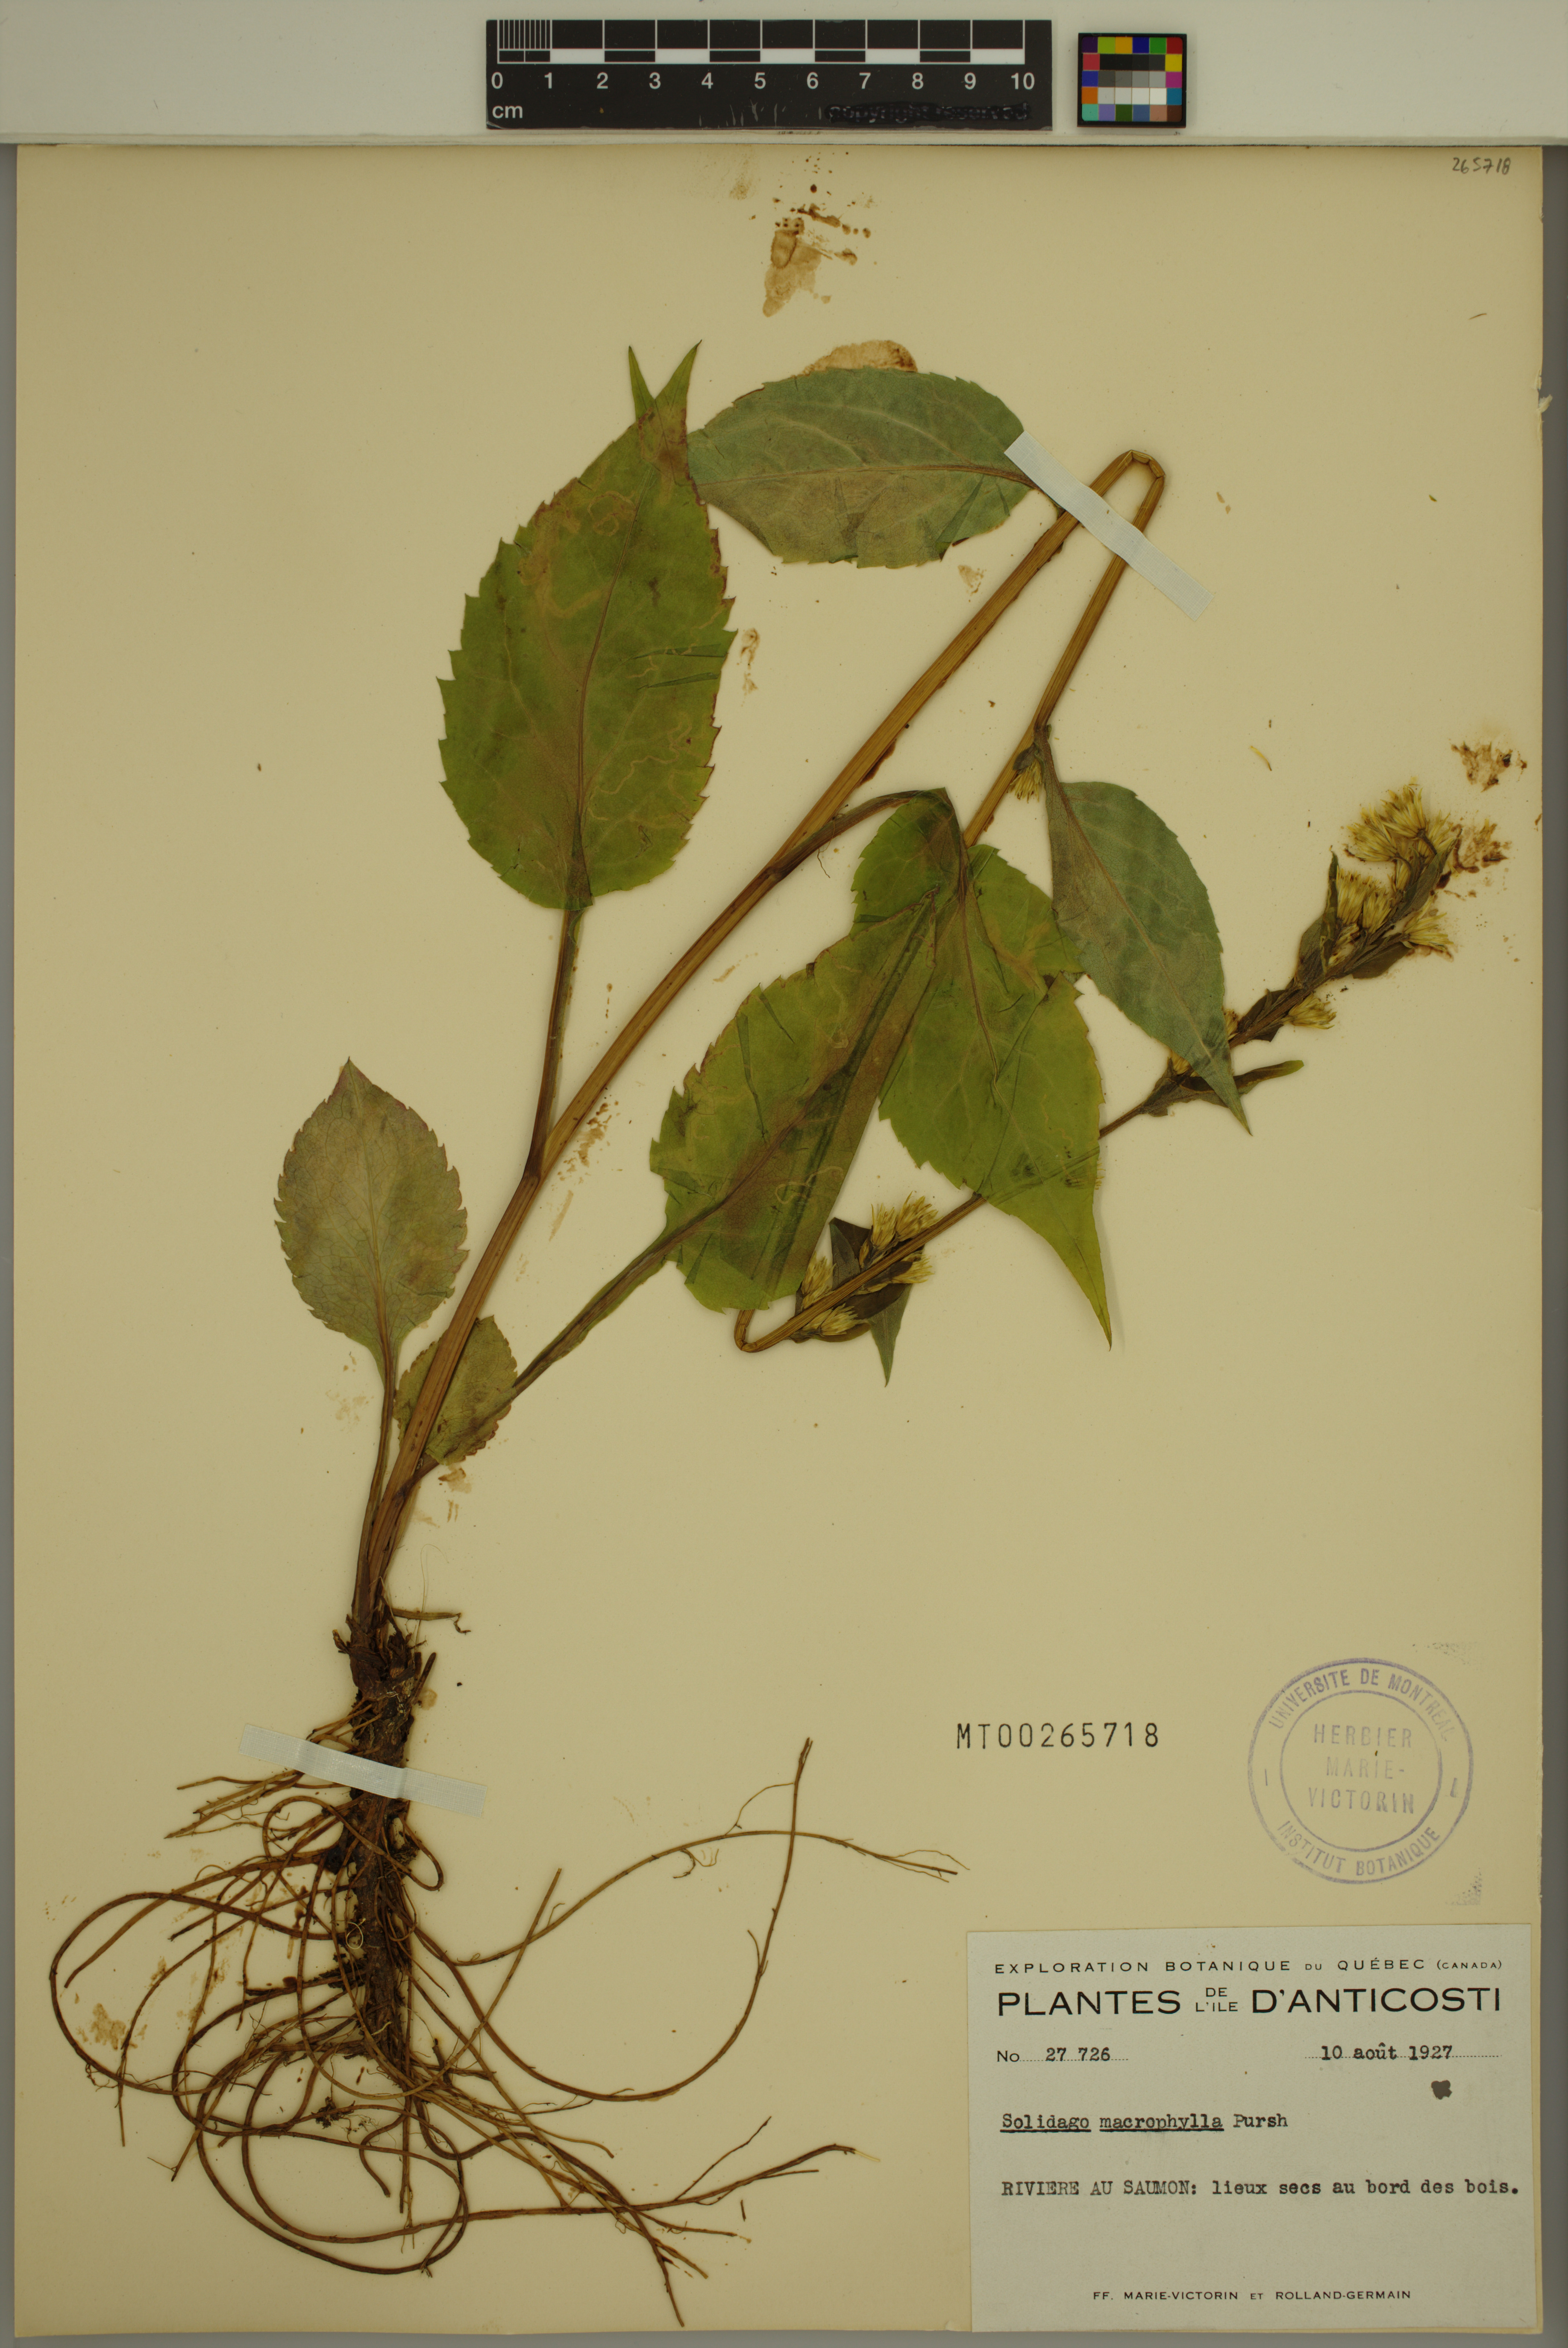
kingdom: Plantae
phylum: Tracheophyta
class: Magnoliopsida
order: Asterales
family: Asteraceae
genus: Solidago
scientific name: Solidago macrophylla
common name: Large-leaved goldenrod
